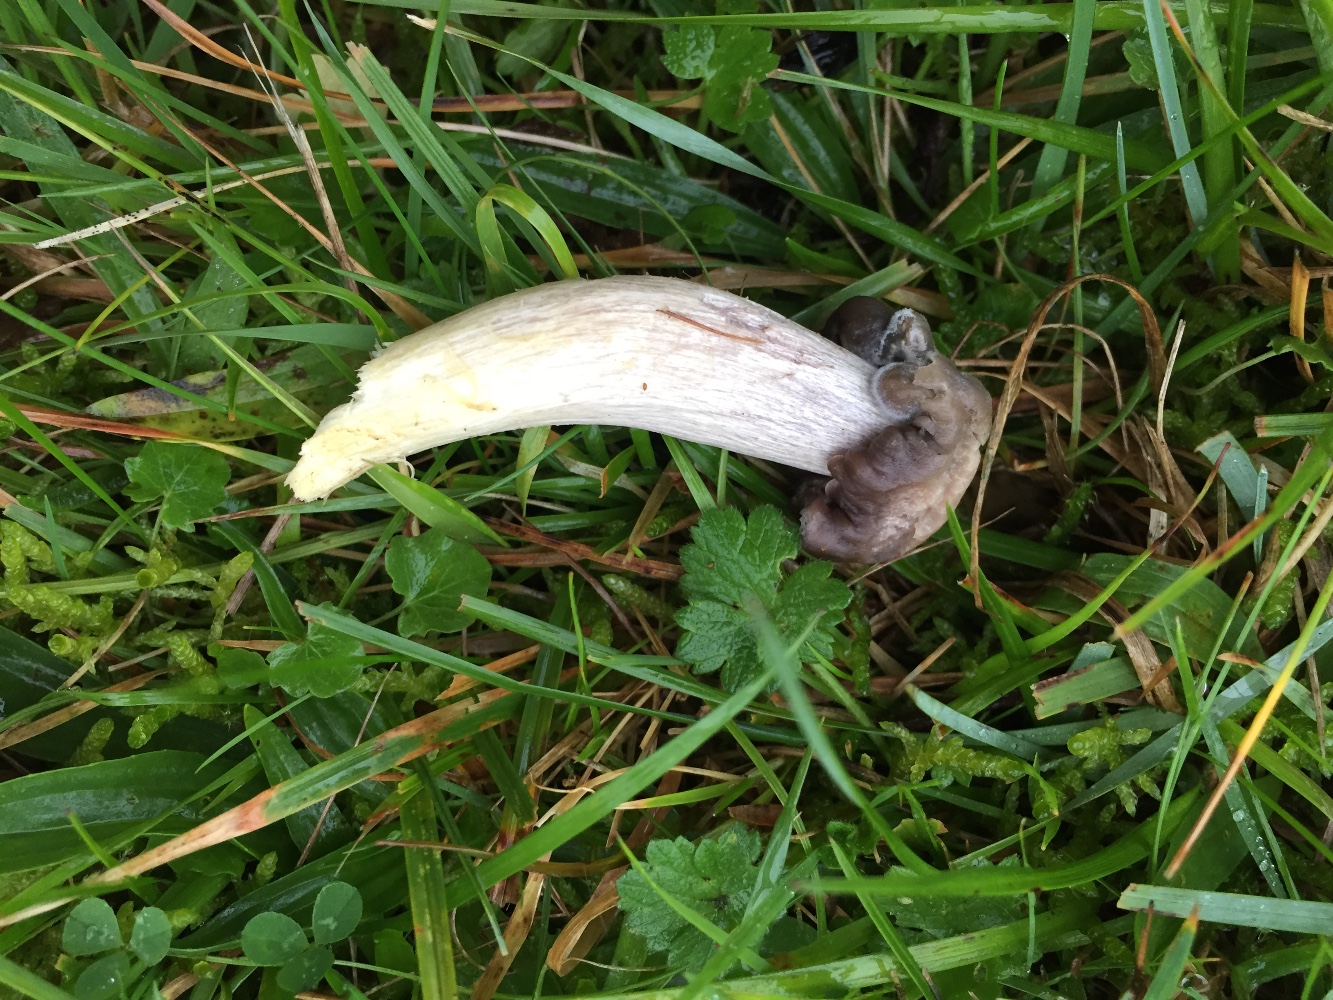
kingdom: Fungi
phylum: Basidiomycota
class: Agaricomycetes
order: Agaricales
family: Hygrophoraceae
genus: Cuphophyllus
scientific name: Cuphophyllus flavipes
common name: gulfodet vokshat
